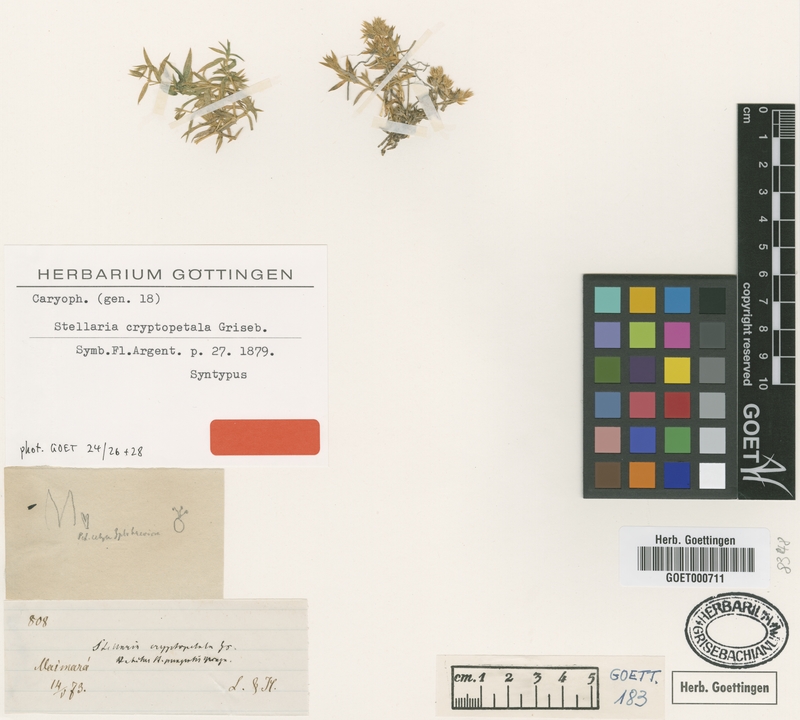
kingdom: Plantae
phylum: Tracheophyta
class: Magnoliopsida
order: Caryophyllales
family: Caryophyllaceae
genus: Stellaria
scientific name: Stellaria cryptopetala
